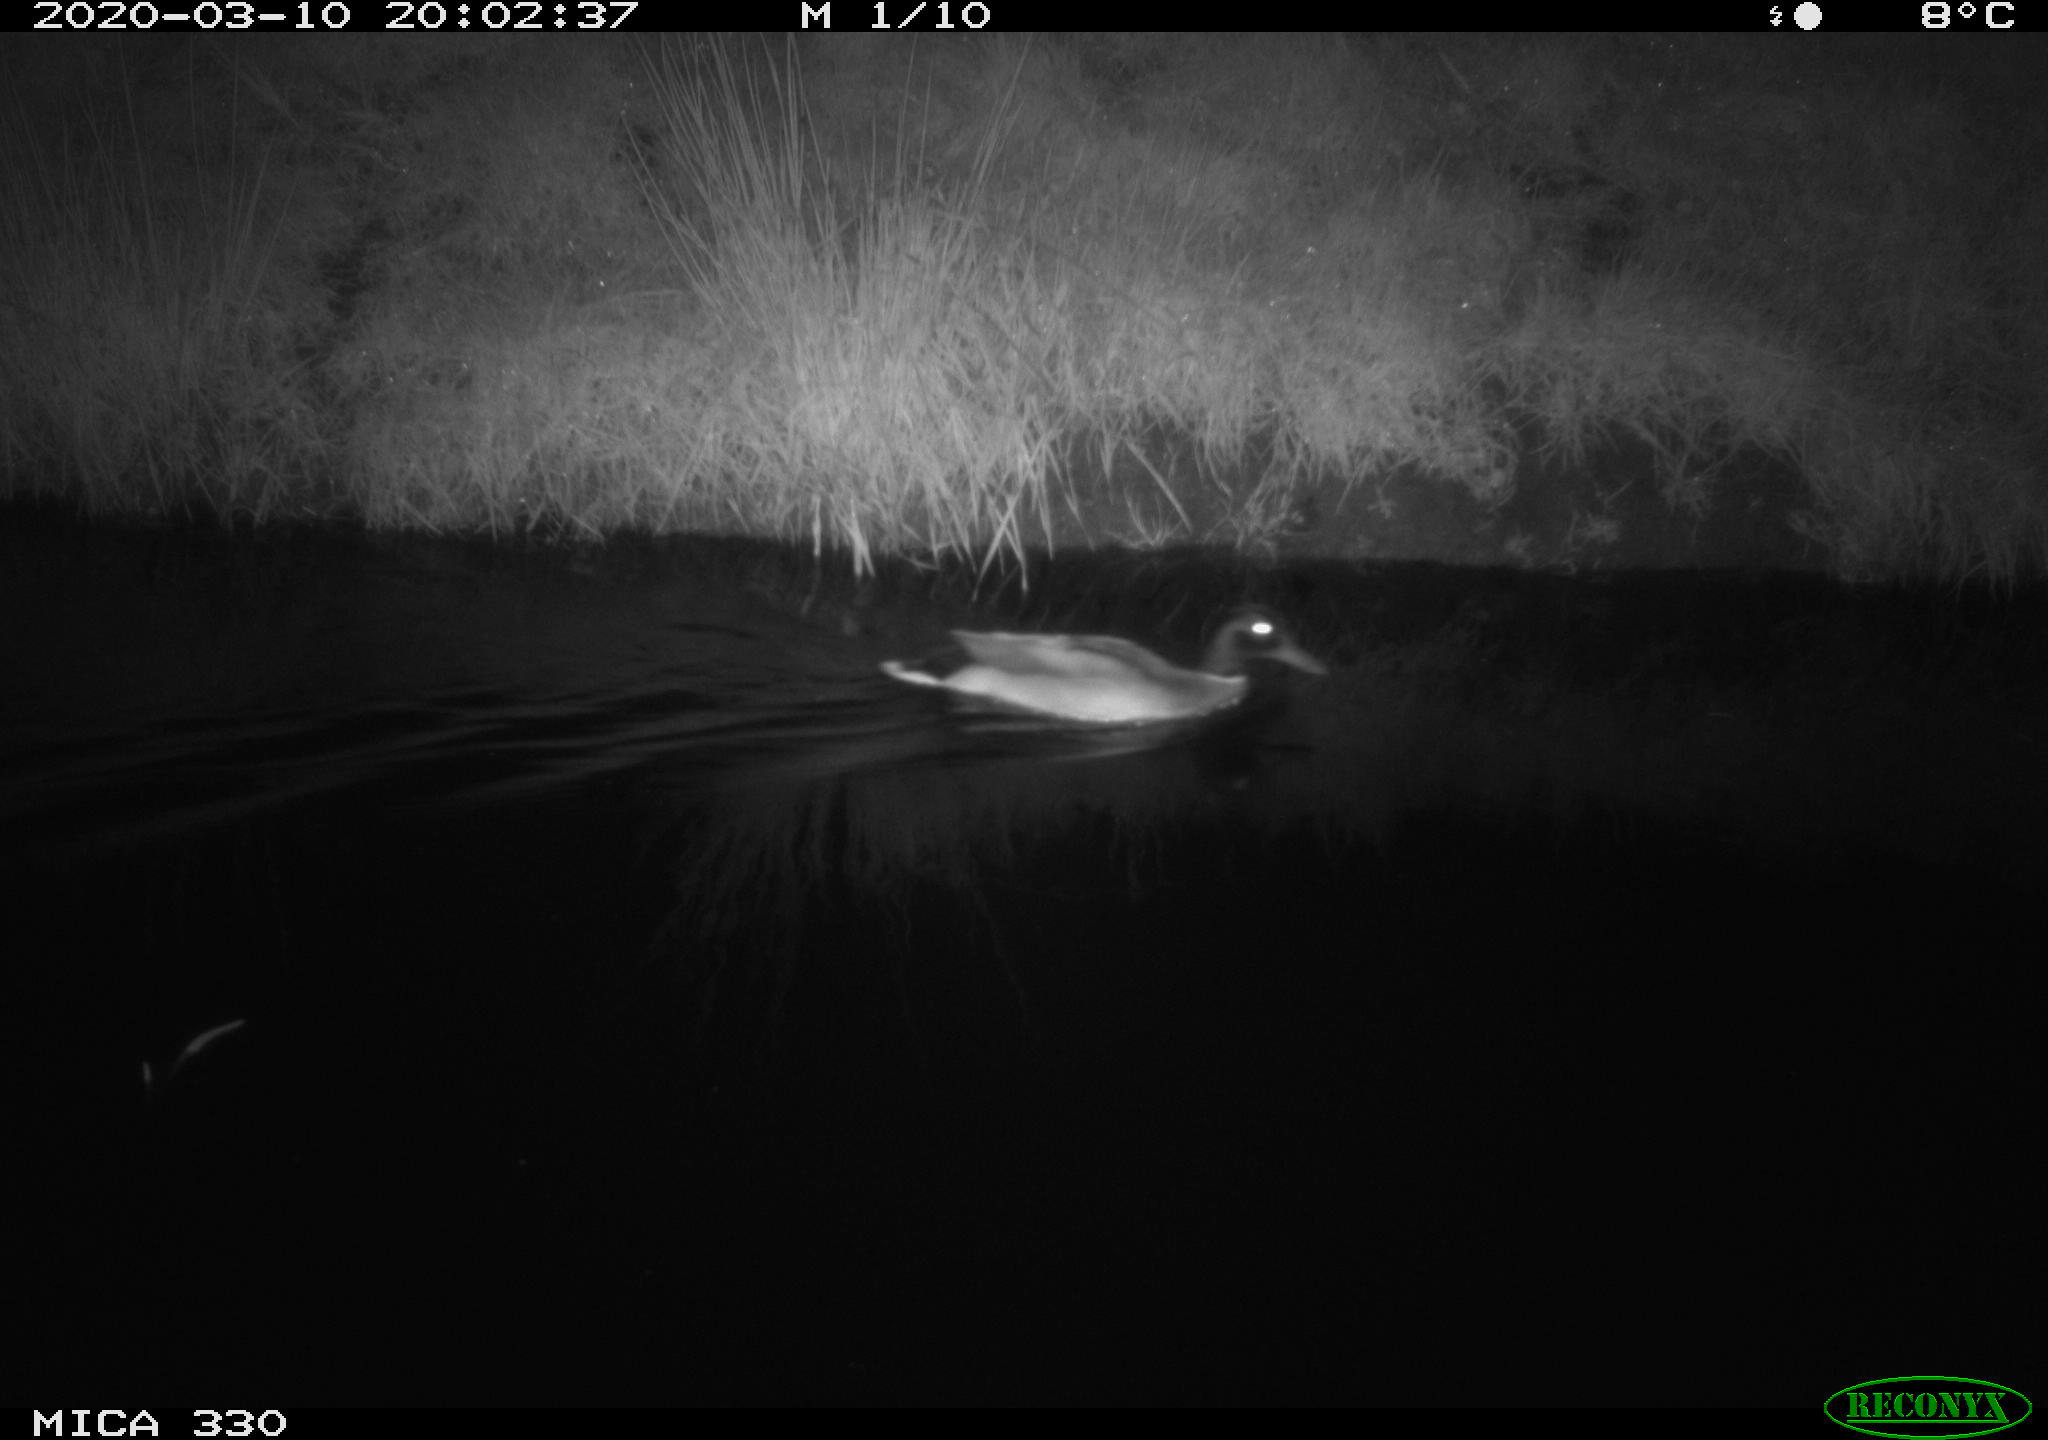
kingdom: Animalia
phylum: Chordata
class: Aves
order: Anseriformes
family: Anatidae
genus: Anas
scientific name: Anas platyrhynchos
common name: Mallard
